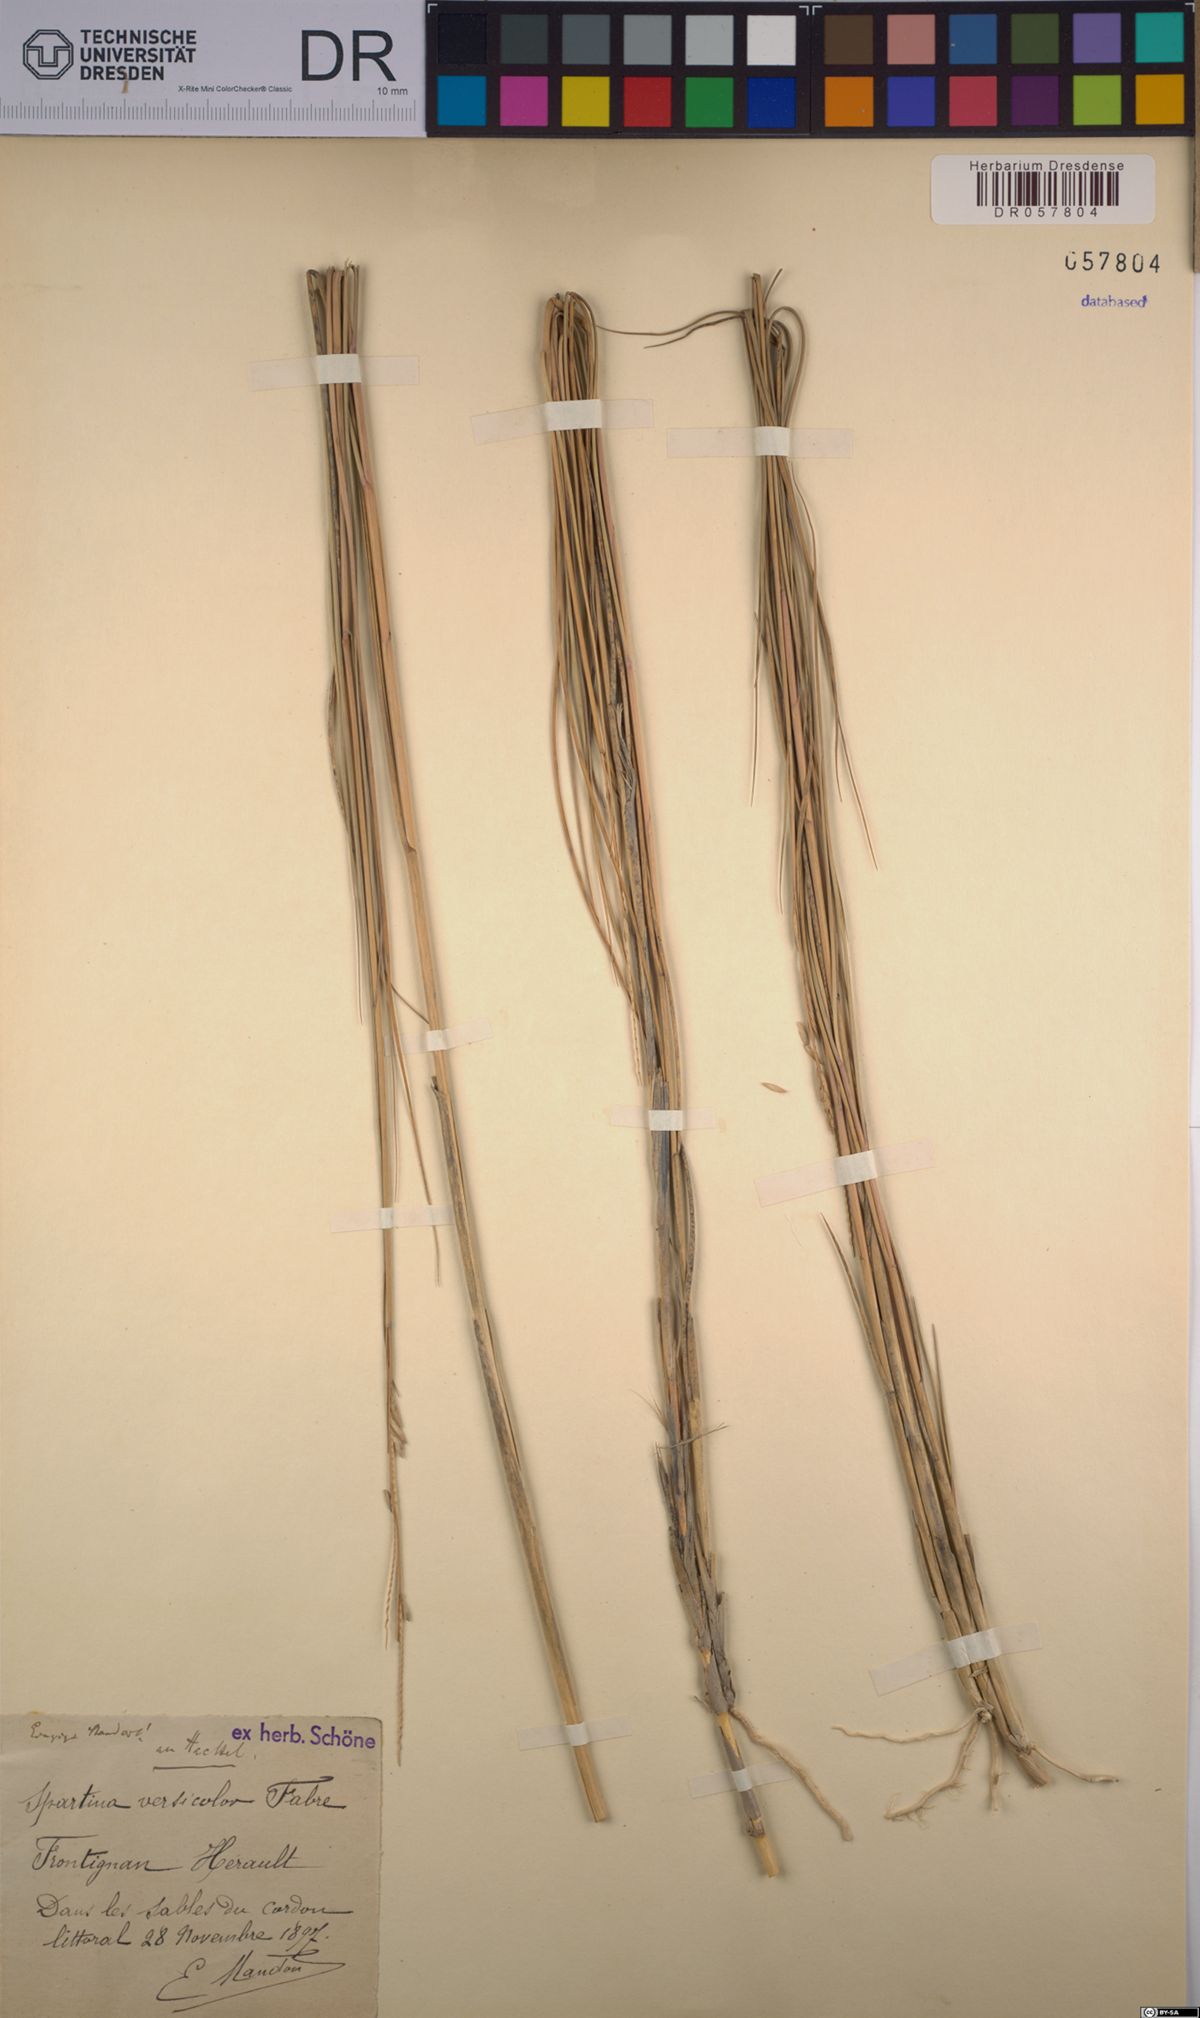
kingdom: Plantae
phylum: Tracheophyta
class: Liliopsida
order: Poales
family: Poaceae
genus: Sporobolus
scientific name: Sporobolus versicolor
